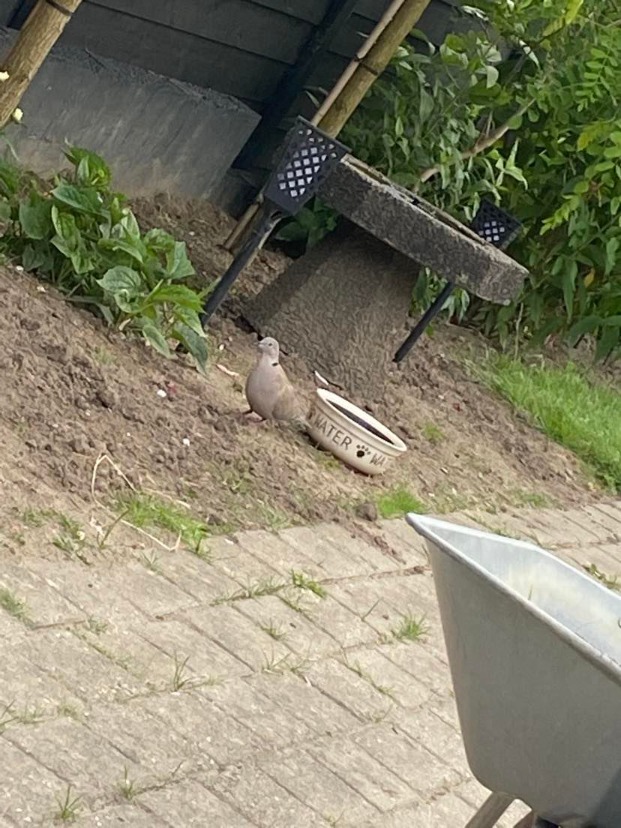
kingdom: Animalia
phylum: Chordata
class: Aves
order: Columbiformes
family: Columbidae
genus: Streptopelia
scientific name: Streptopelia decaocto
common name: Tyrkerdue
